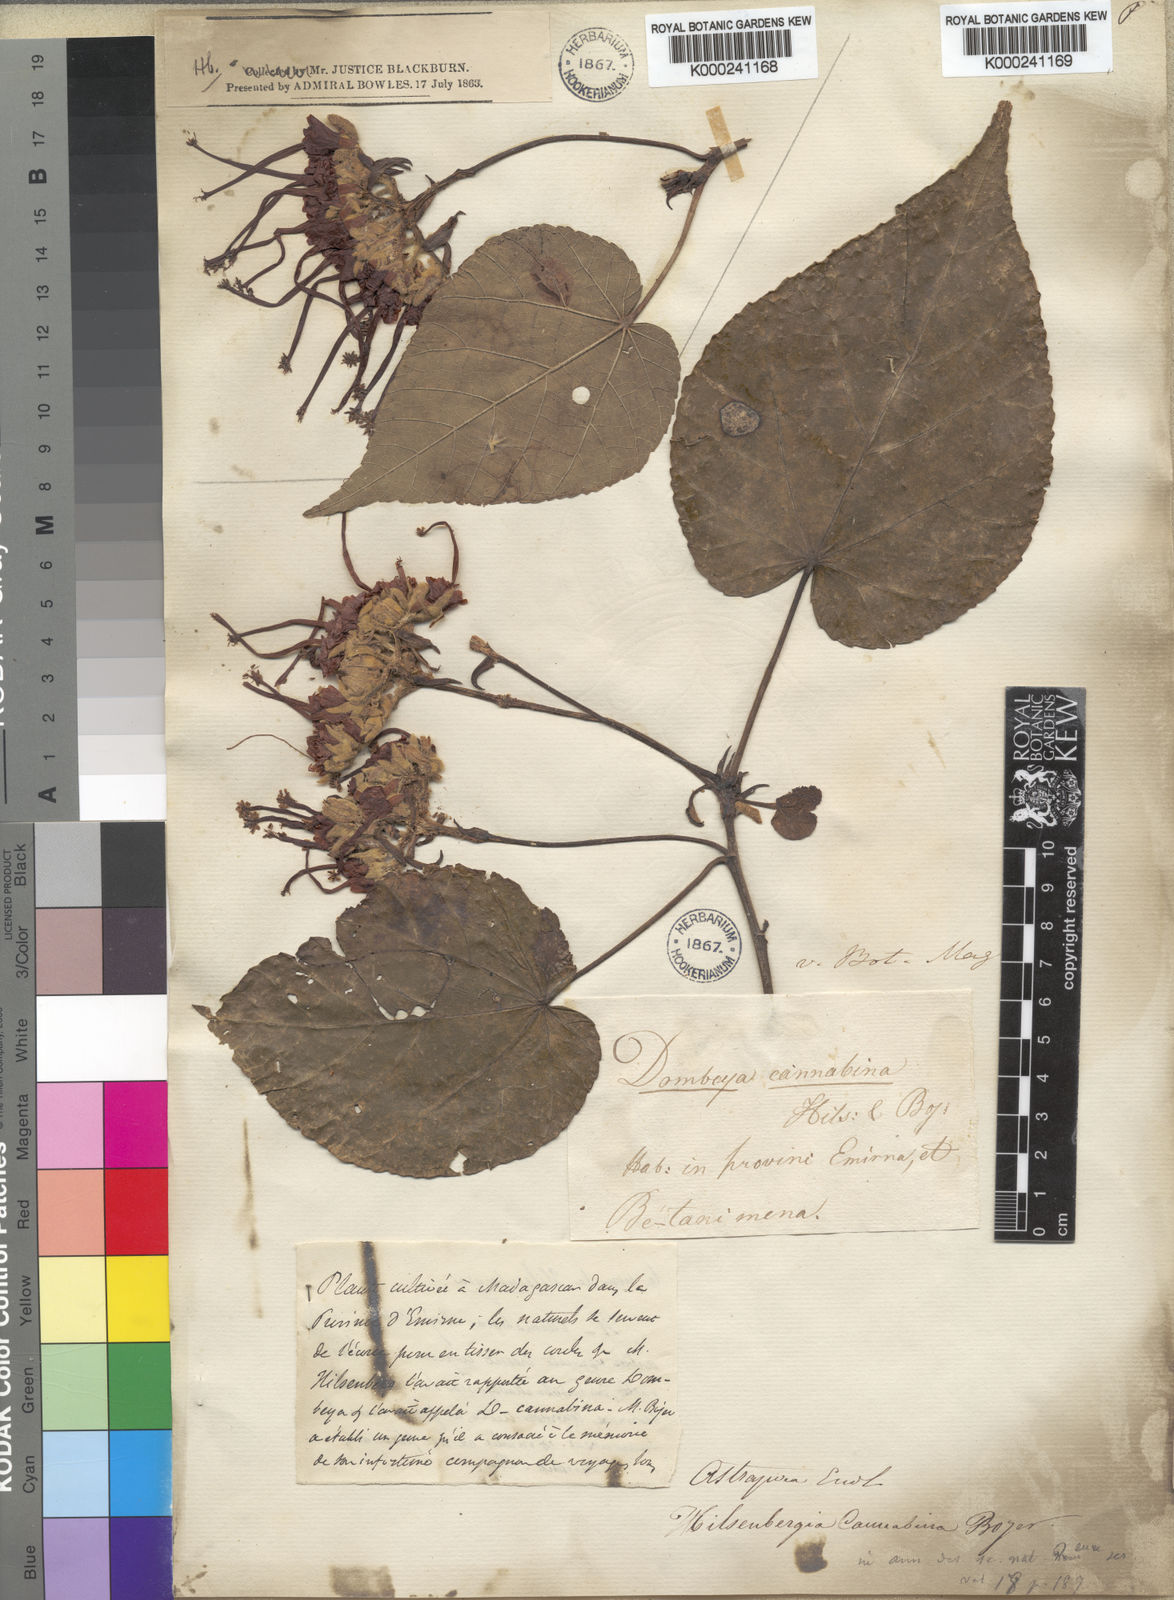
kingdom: Plantae
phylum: Tracheophyta
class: Magnoliopsida
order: Malvales
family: Malvaceae
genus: Dombeya
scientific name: Dombeya cannabina
